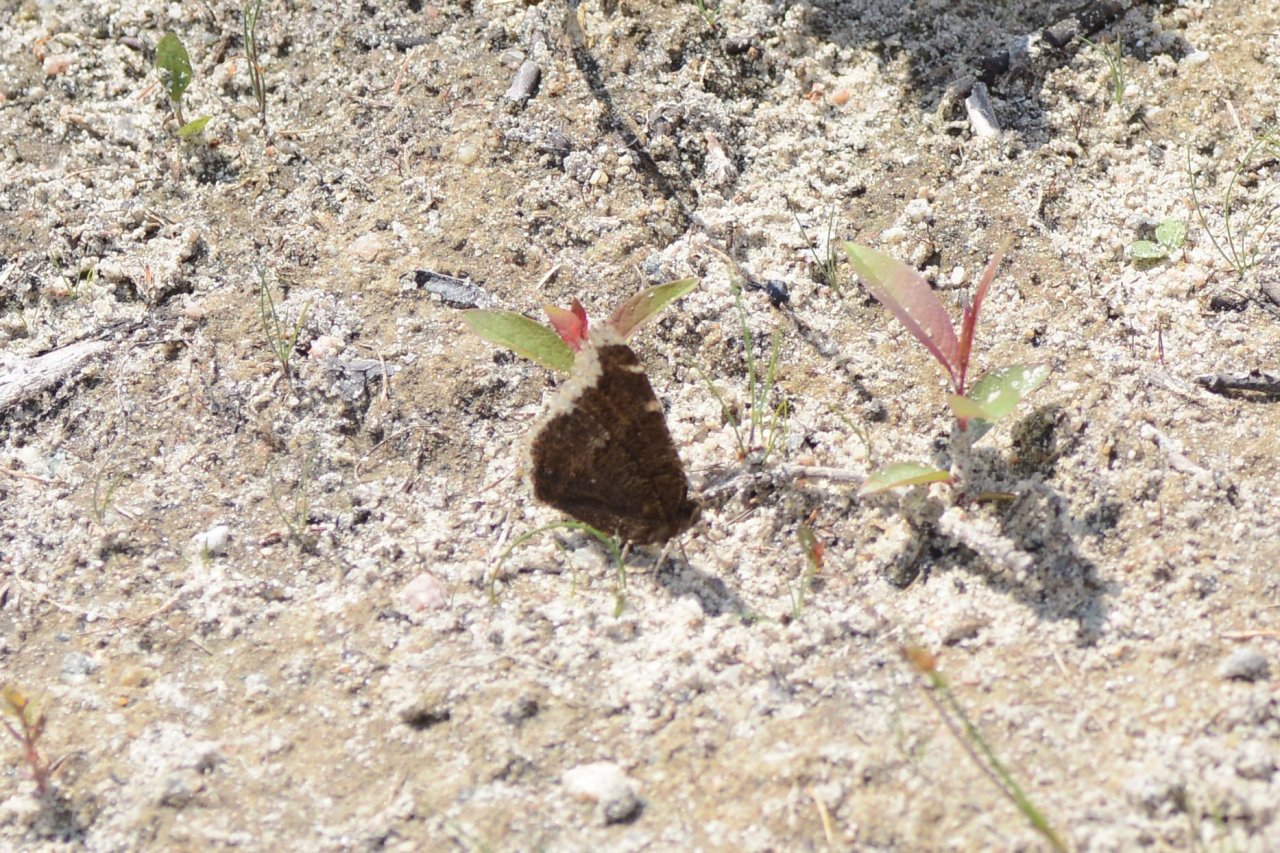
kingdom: Animalia
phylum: Arthropoda
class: Insecta
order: Lepidoptera
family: Nymphalidae
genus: Nymphalis
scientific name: Nymphalis antiopa
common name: Mourning Cloak
